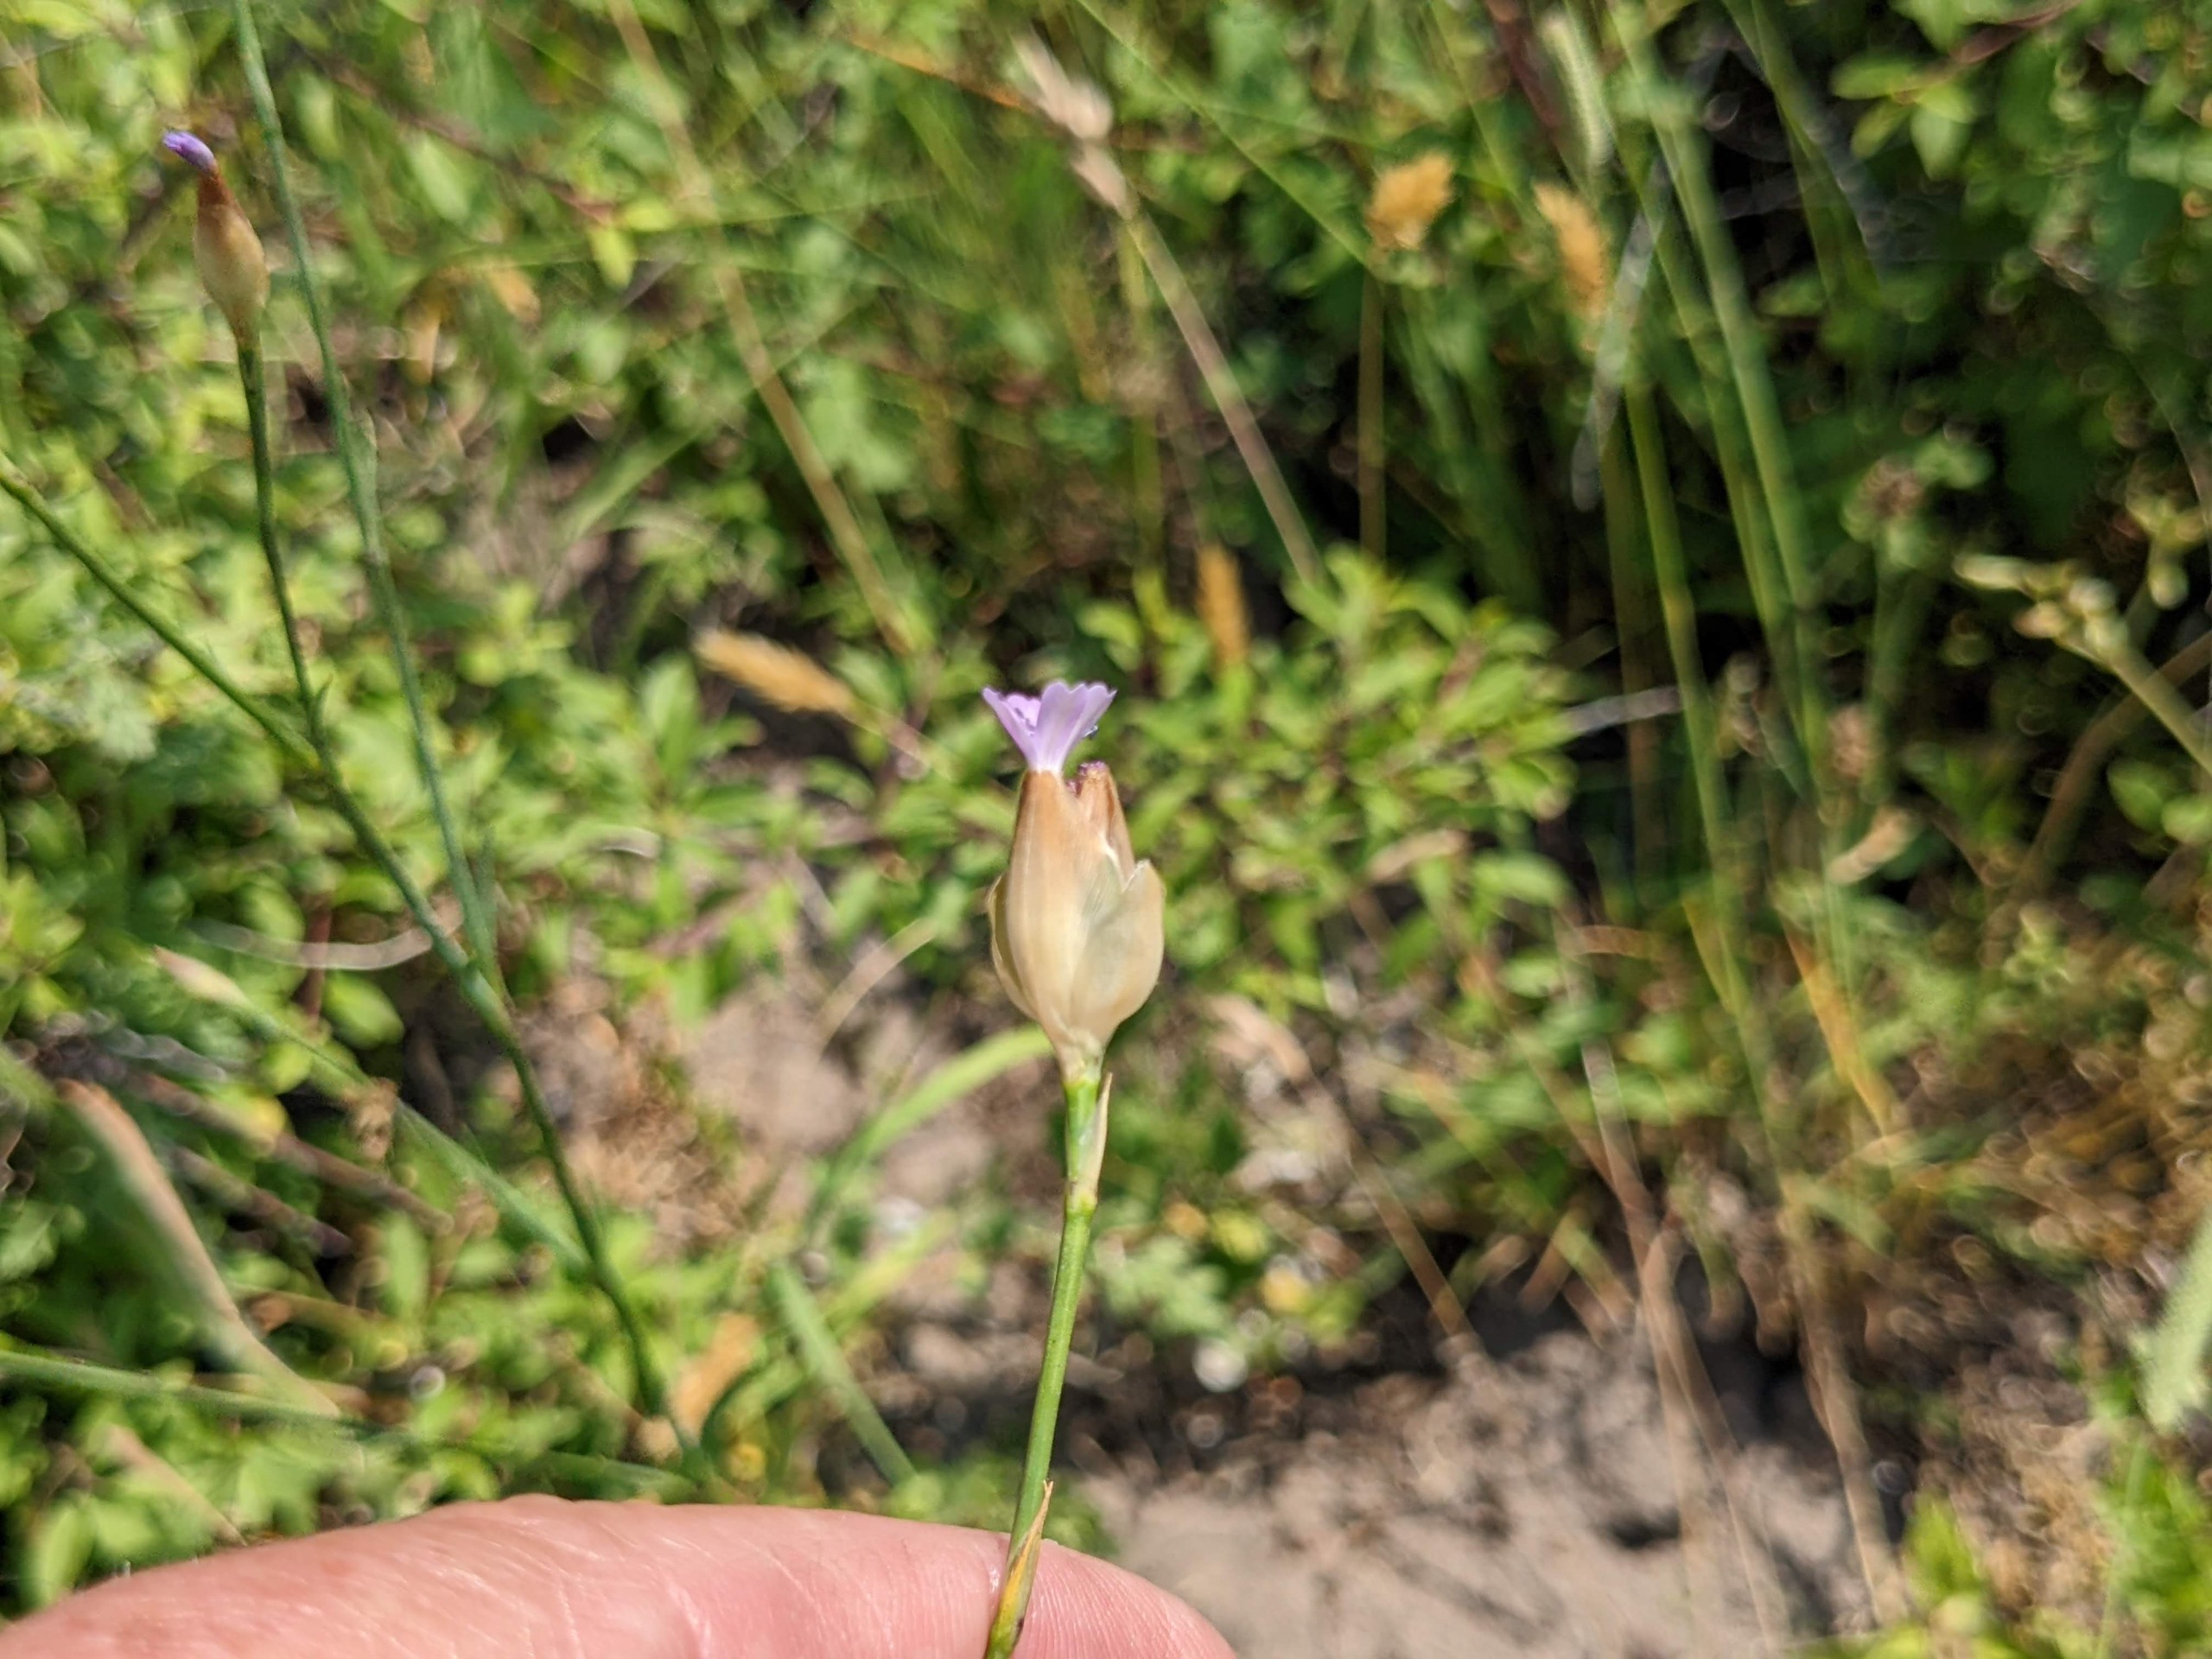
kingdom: Plantae
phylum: Tracheophyta
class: Magnoliopsida
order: Caryophyllales
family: Caryophyllaceae
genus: Petrorhagia
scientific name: Petrorhagia prolifera
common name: Knopnellike
